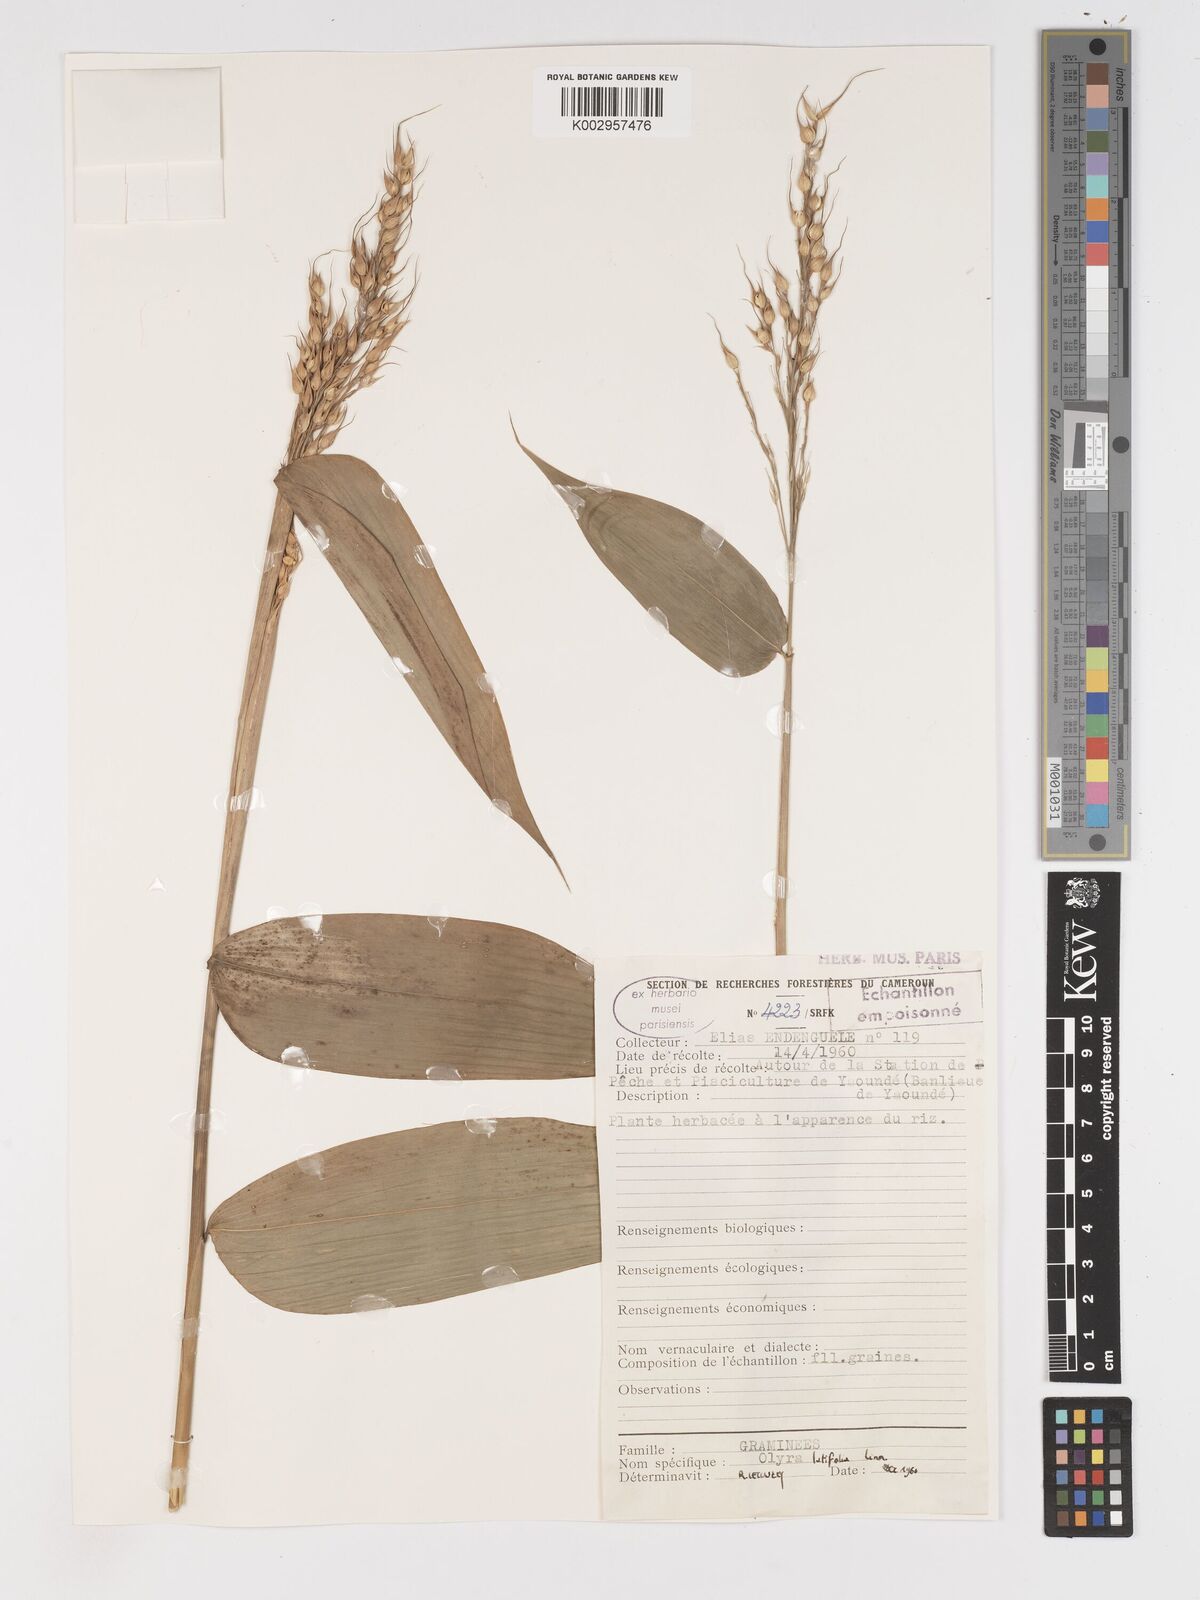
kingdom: Plantae
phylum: Tracheophyta
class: Liliopsida
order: Poales
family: Poaceae
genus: Olyra
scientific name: Olyra latifolia
